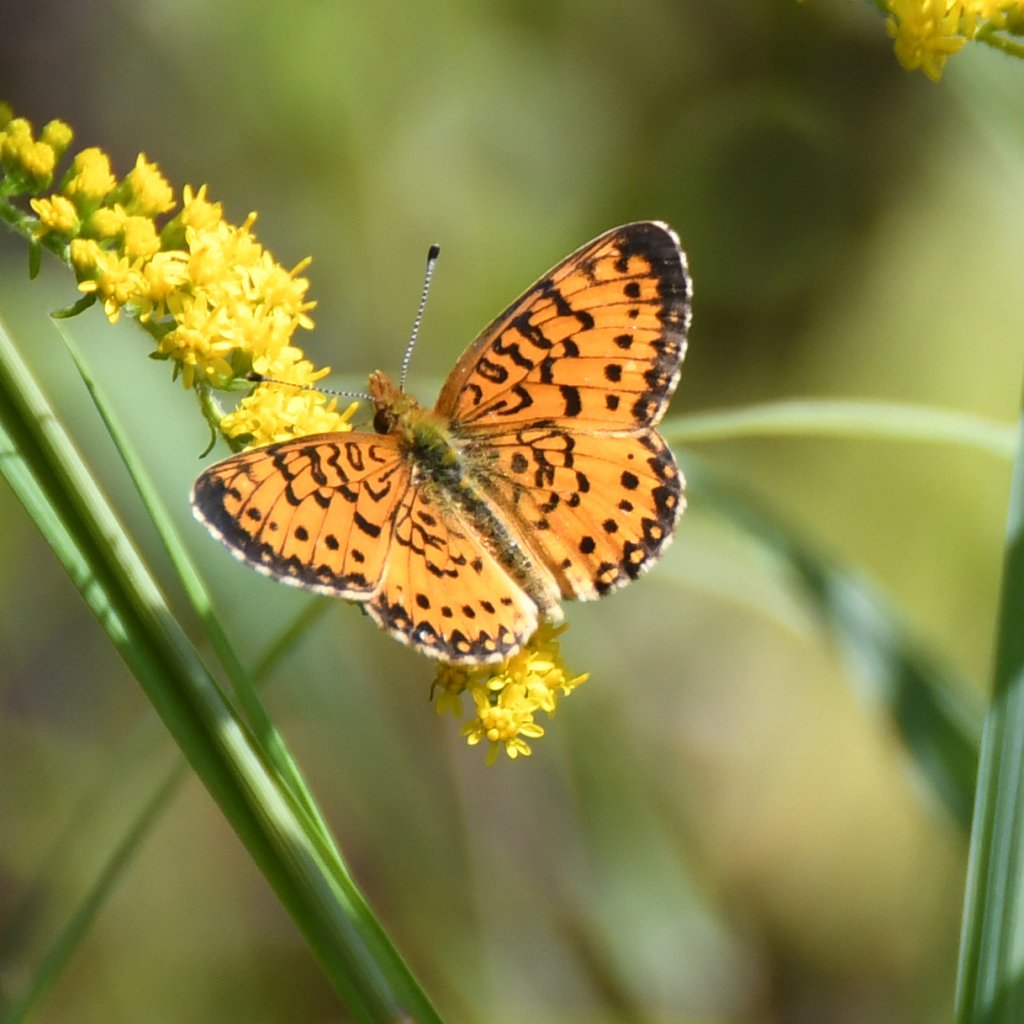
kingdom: Animalia
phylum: Arthropoda
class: Insecta
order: Lepidoptera
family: Nymphalidae
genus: Boloria
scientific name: Boloria selene
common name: Silver-bordered Fritillary
